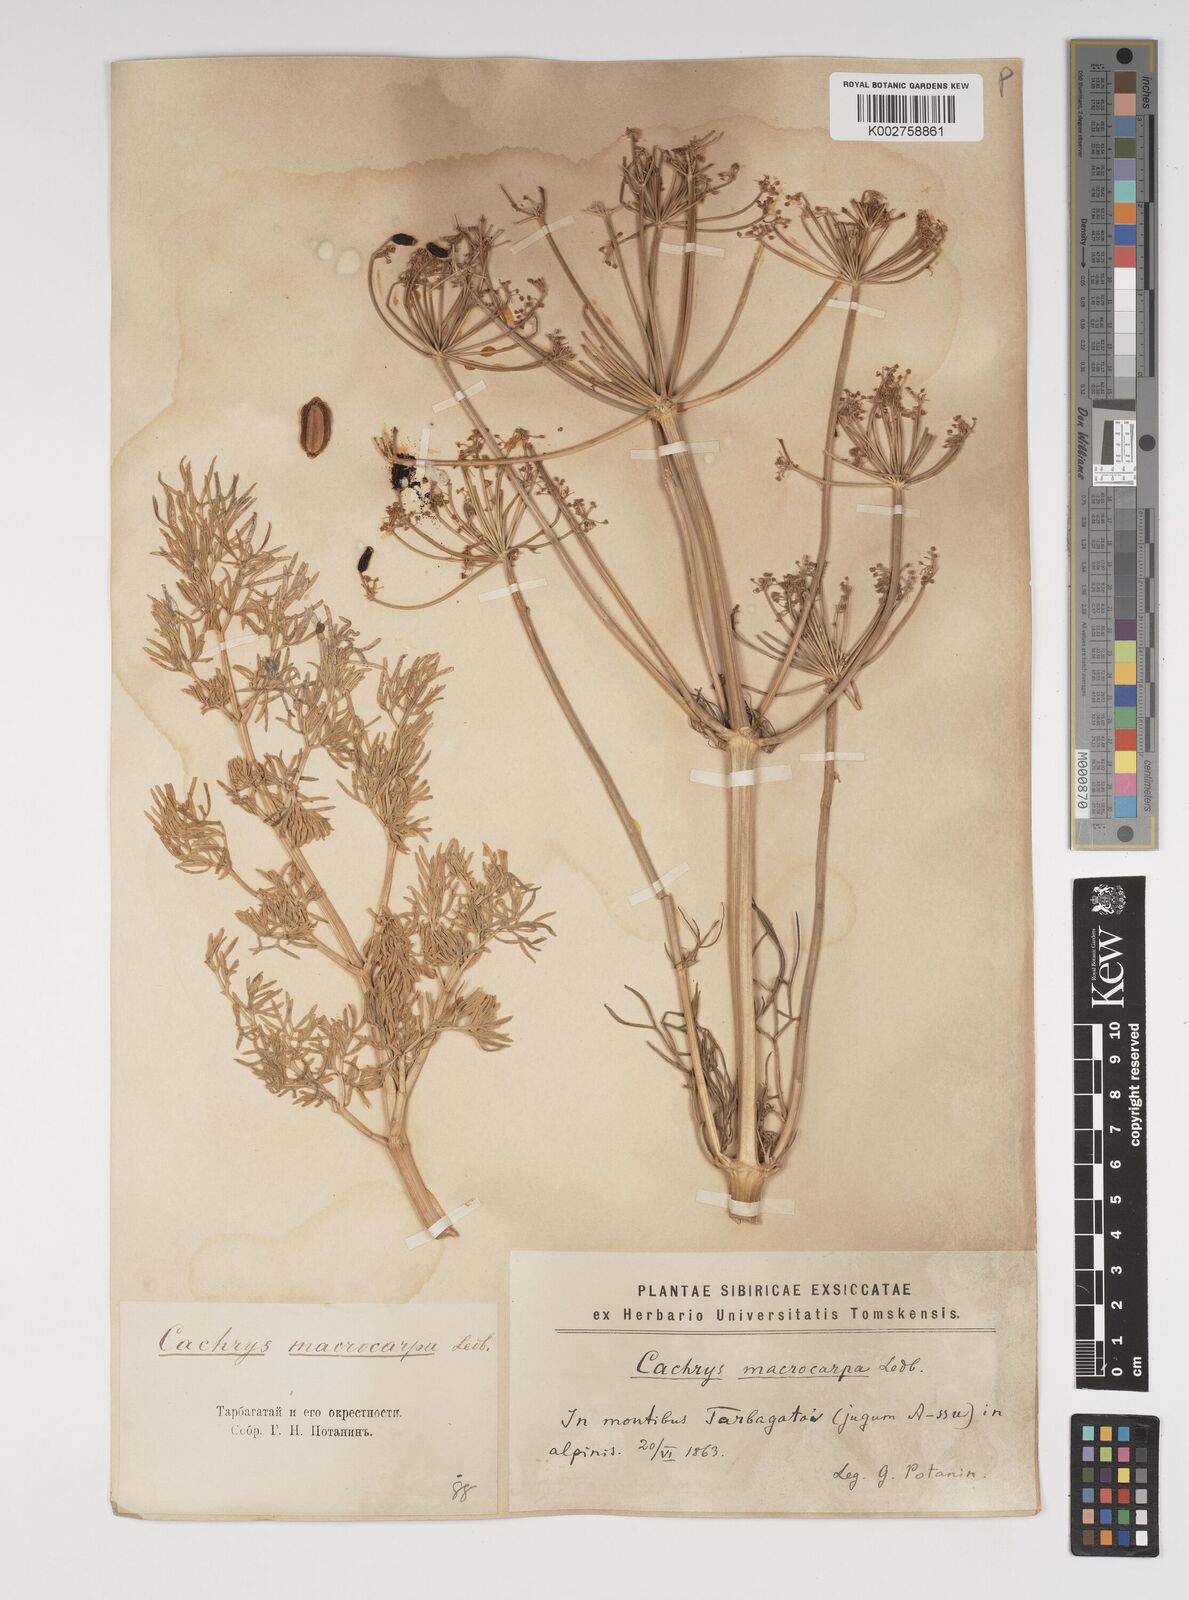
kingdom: Plantae
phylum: Tracheophyta
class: Magnoliopsida
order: Apiales
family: Apiaceae
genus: Prangos
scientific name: Prangos ferulacea
